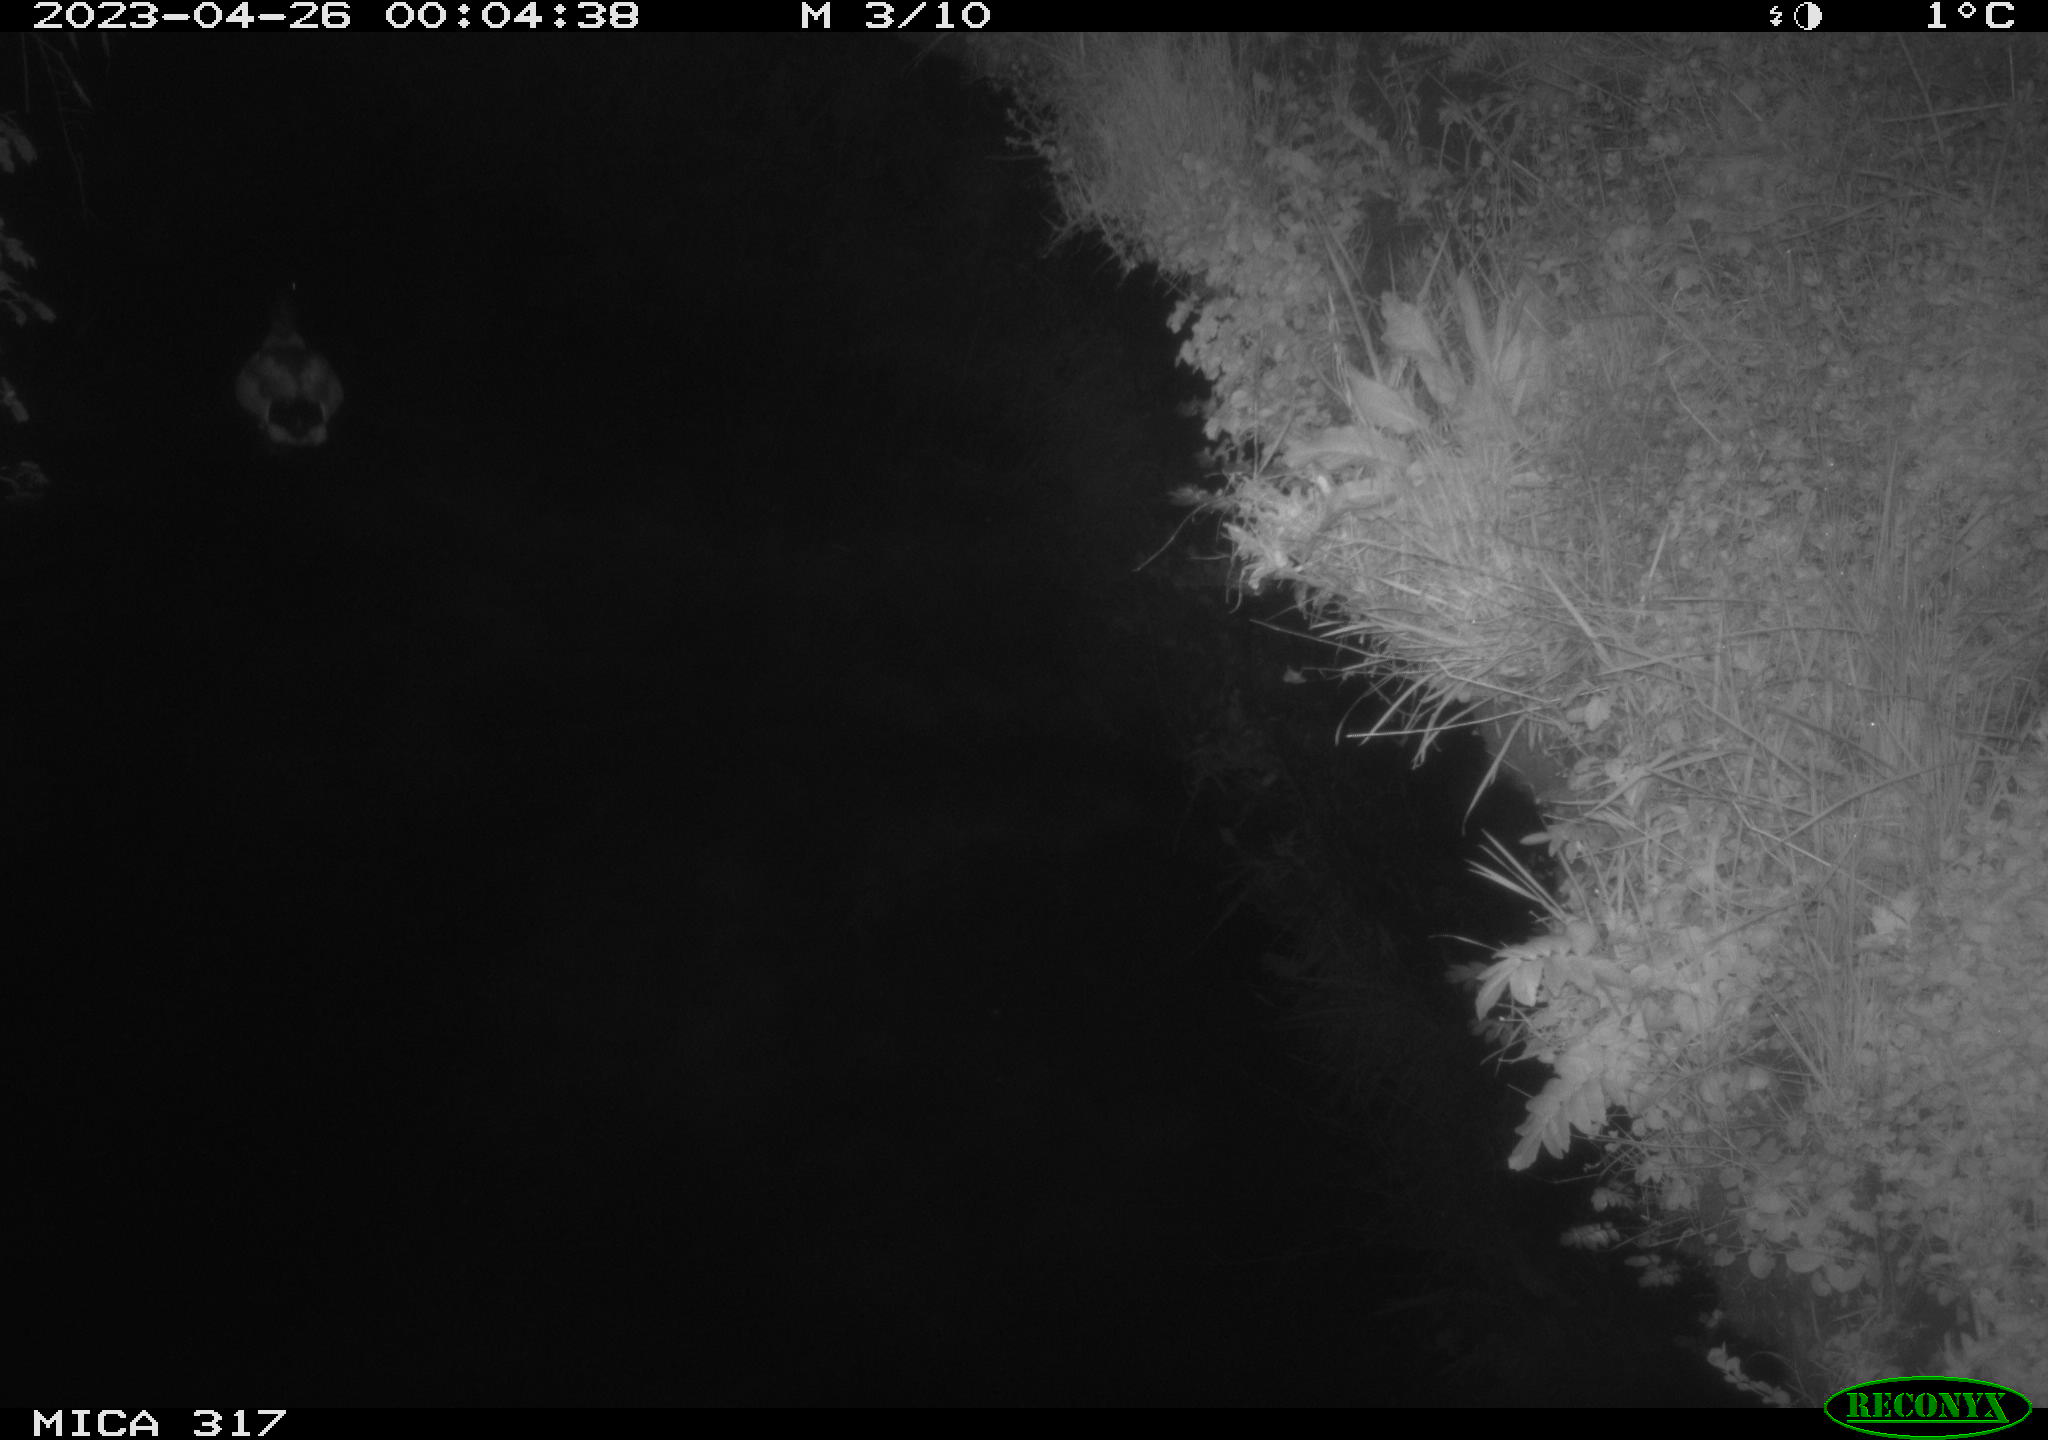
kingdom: Animalia
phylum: Chordata
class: Aves
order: Anseriformes
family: Anatidae
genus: Anas
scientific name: Anas
